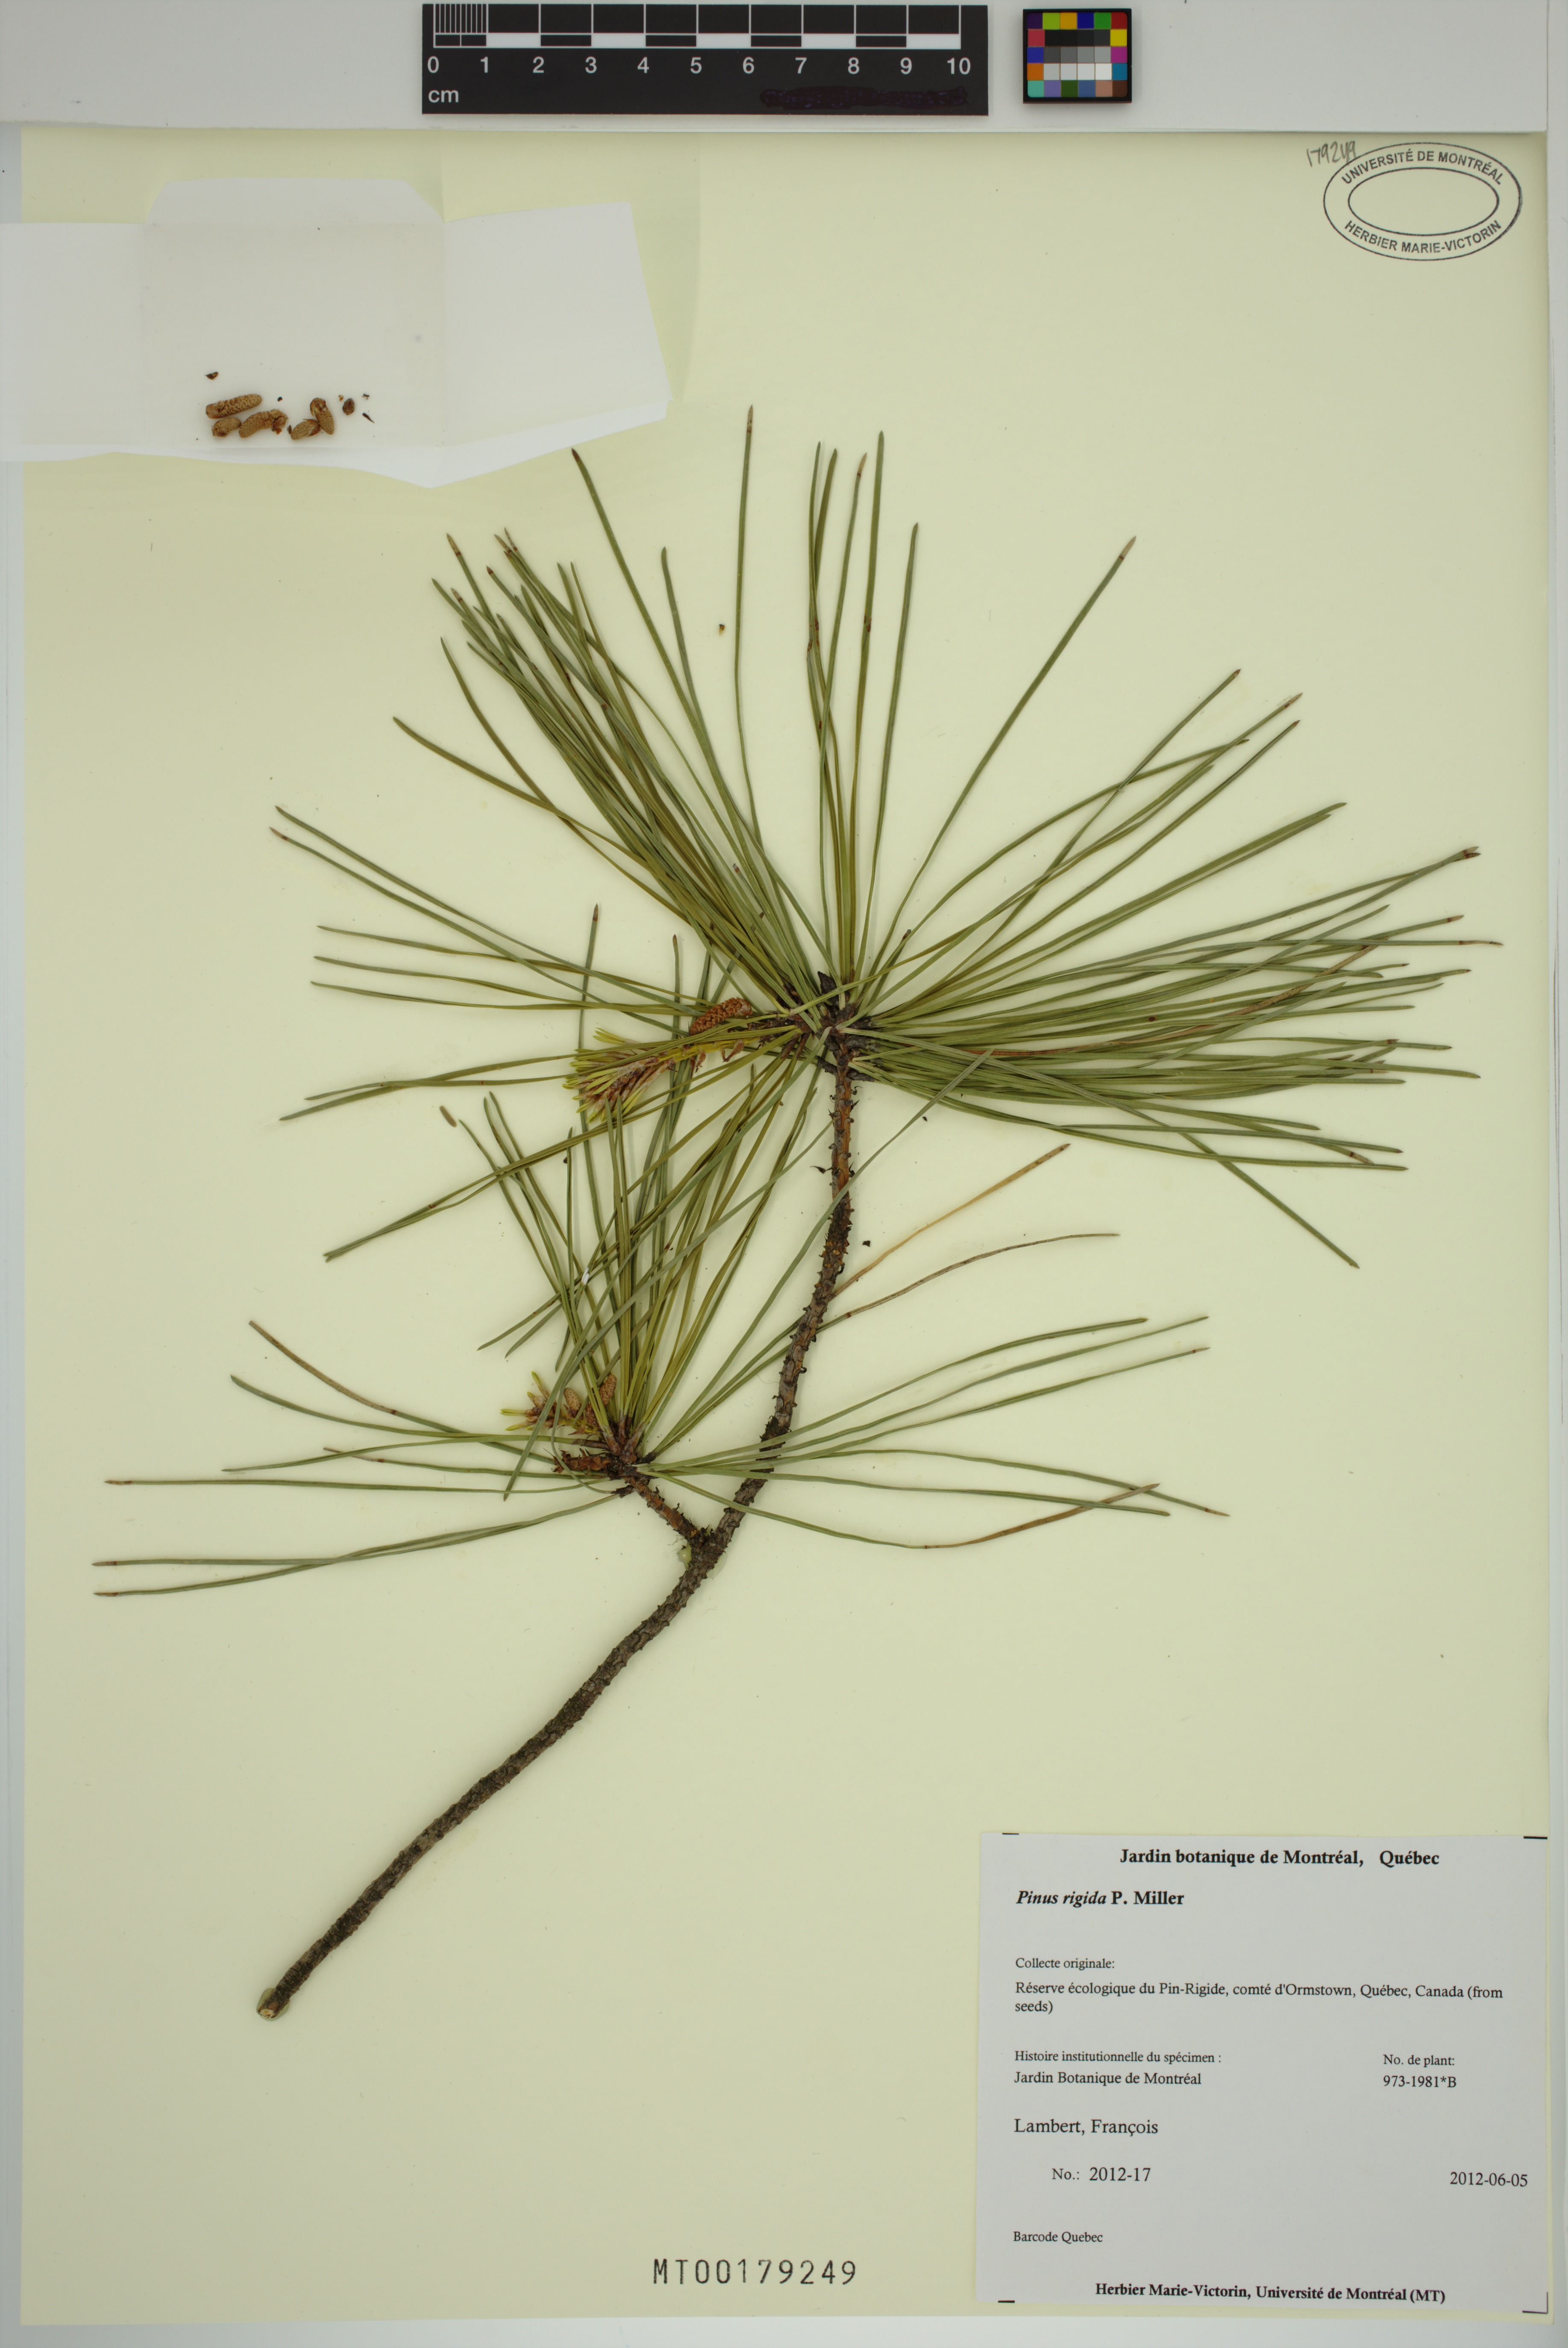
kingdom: Plantae
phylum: Tracheophyta
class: Pinopsida
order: Pinales
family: Pinaceae
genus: Pinus
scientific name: Pinus rigida
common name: Pitch pine
